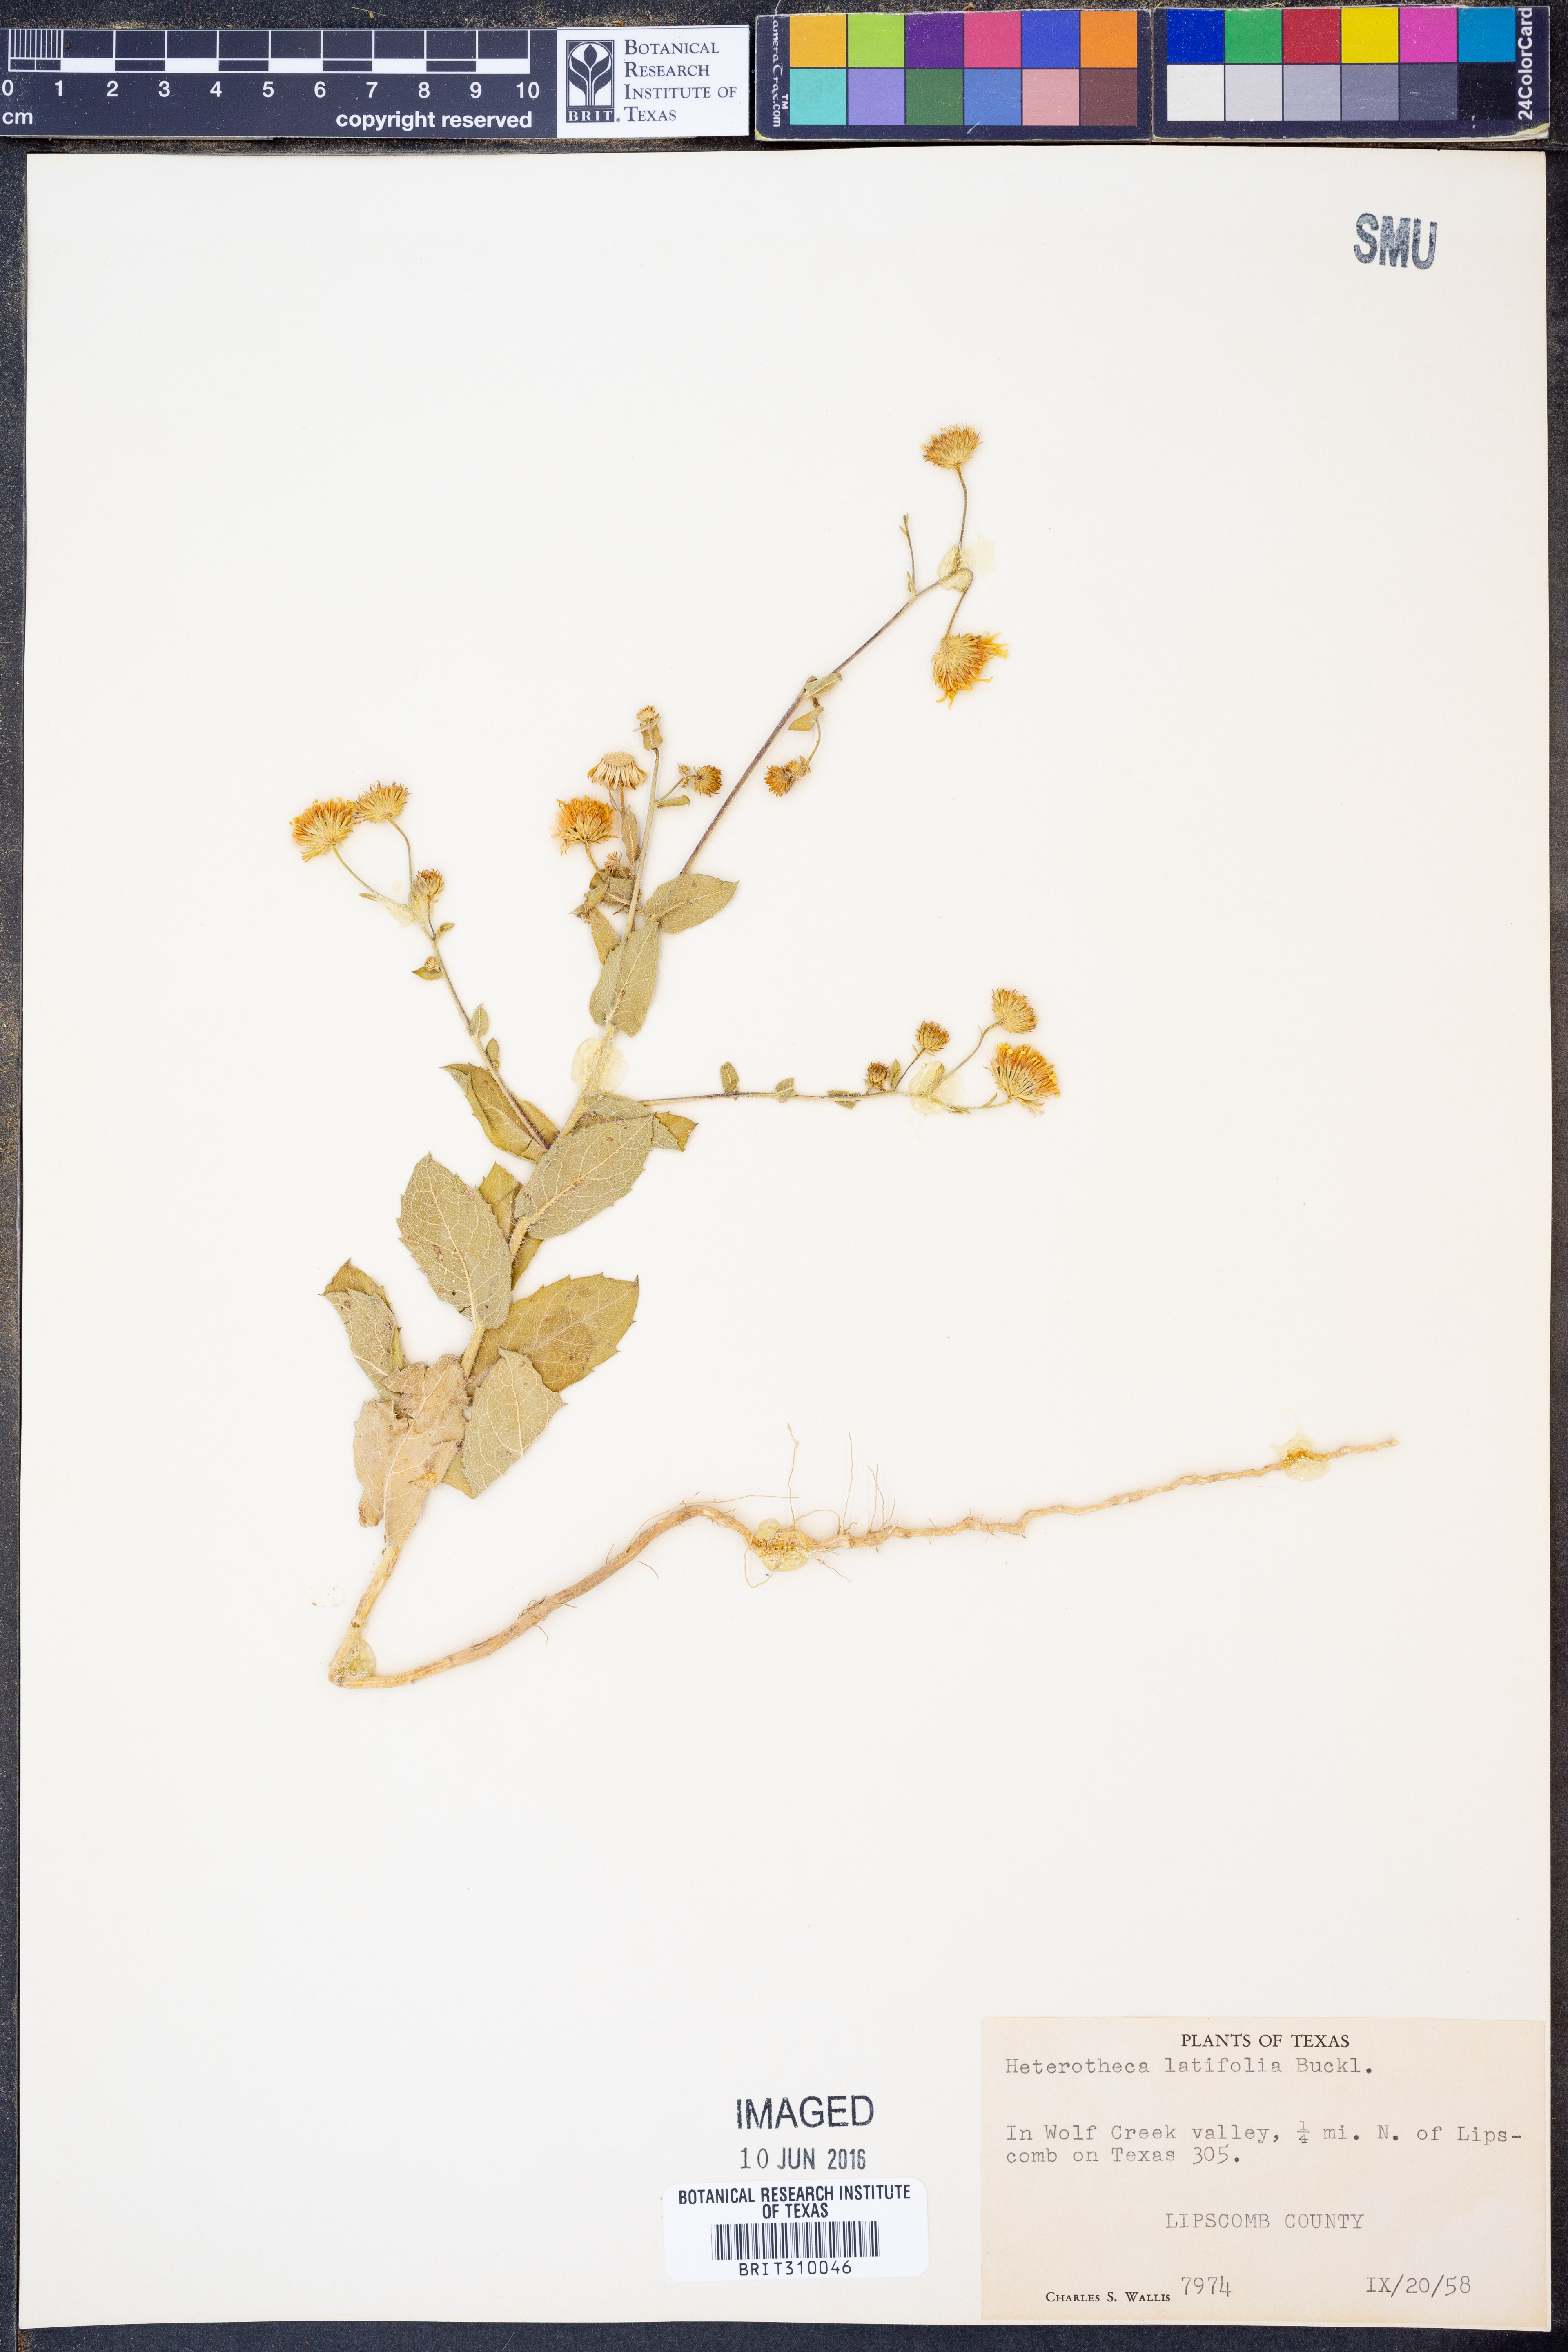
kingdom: Plantae
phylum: Tracheophyta
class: Magnoliopsida
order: Asterales
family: Asteraceae
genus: Heterotheca
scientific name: Heterotheca subaxillaris
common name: Camphorweed
